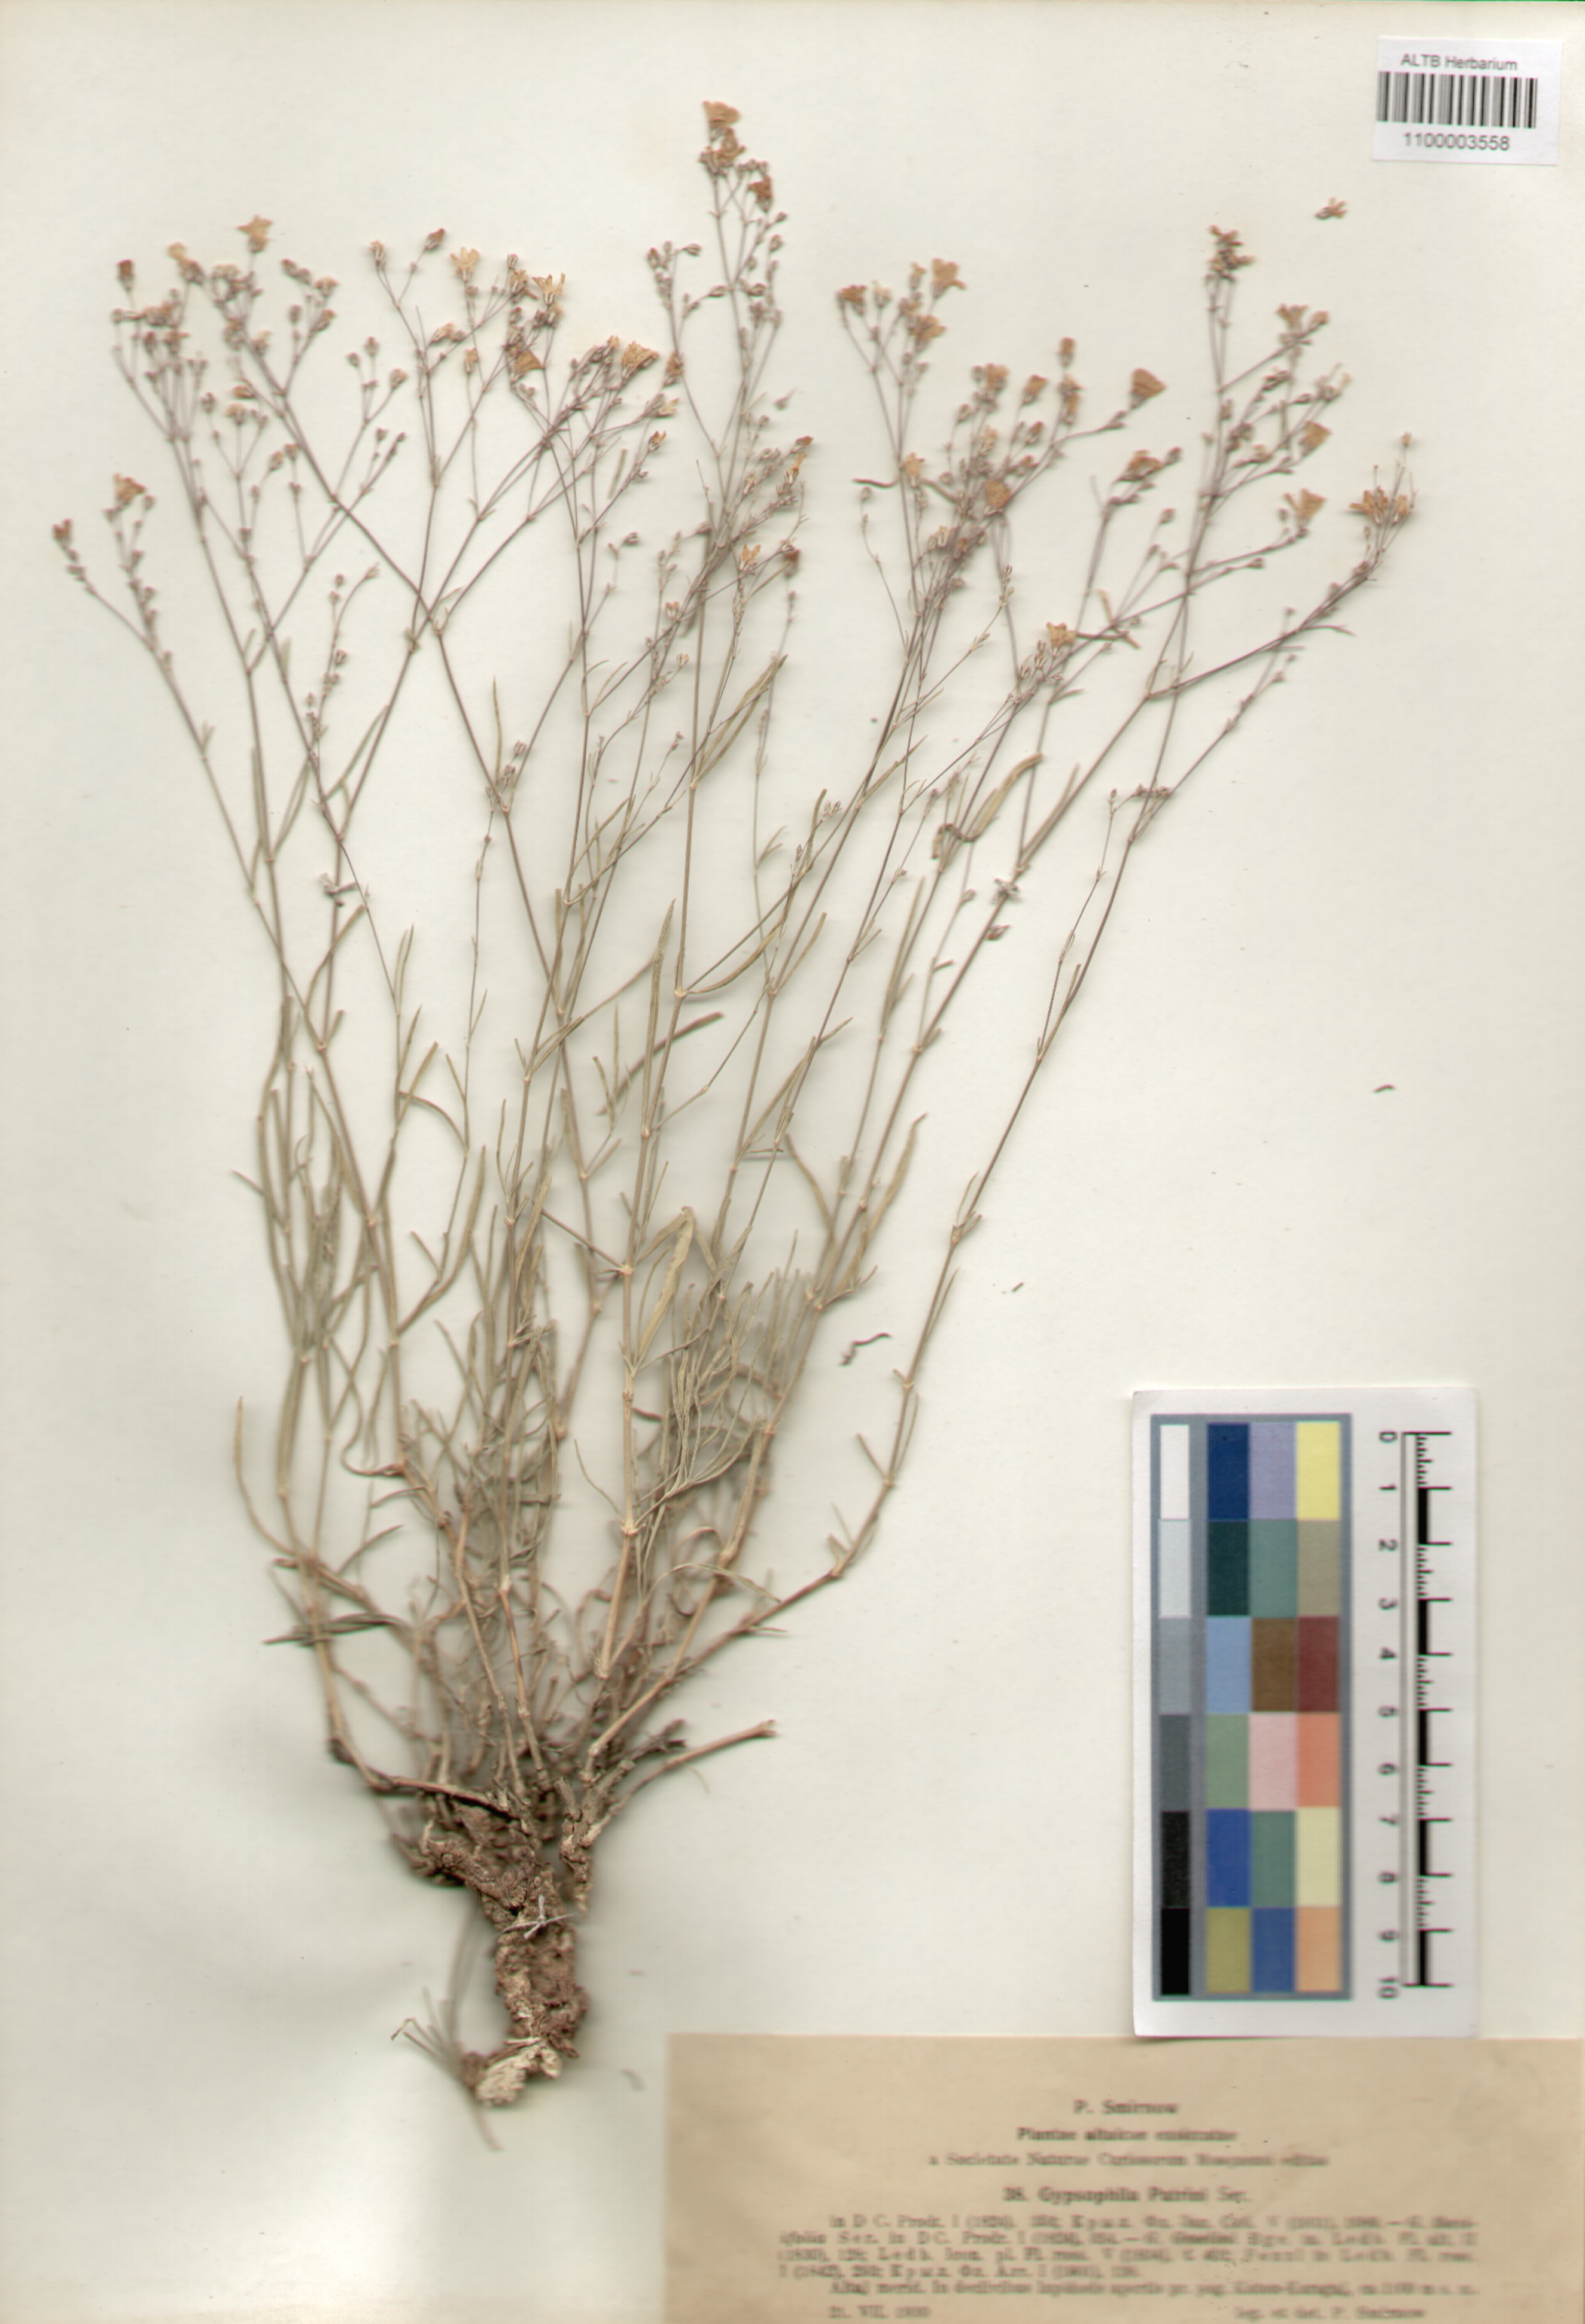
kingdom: Plantae
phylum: Tracheophyta
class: Magnoliopsida
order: Caryophyllales
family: Caryophyllaceae
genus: Gypsophila
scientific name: Gypsophila patrinii
